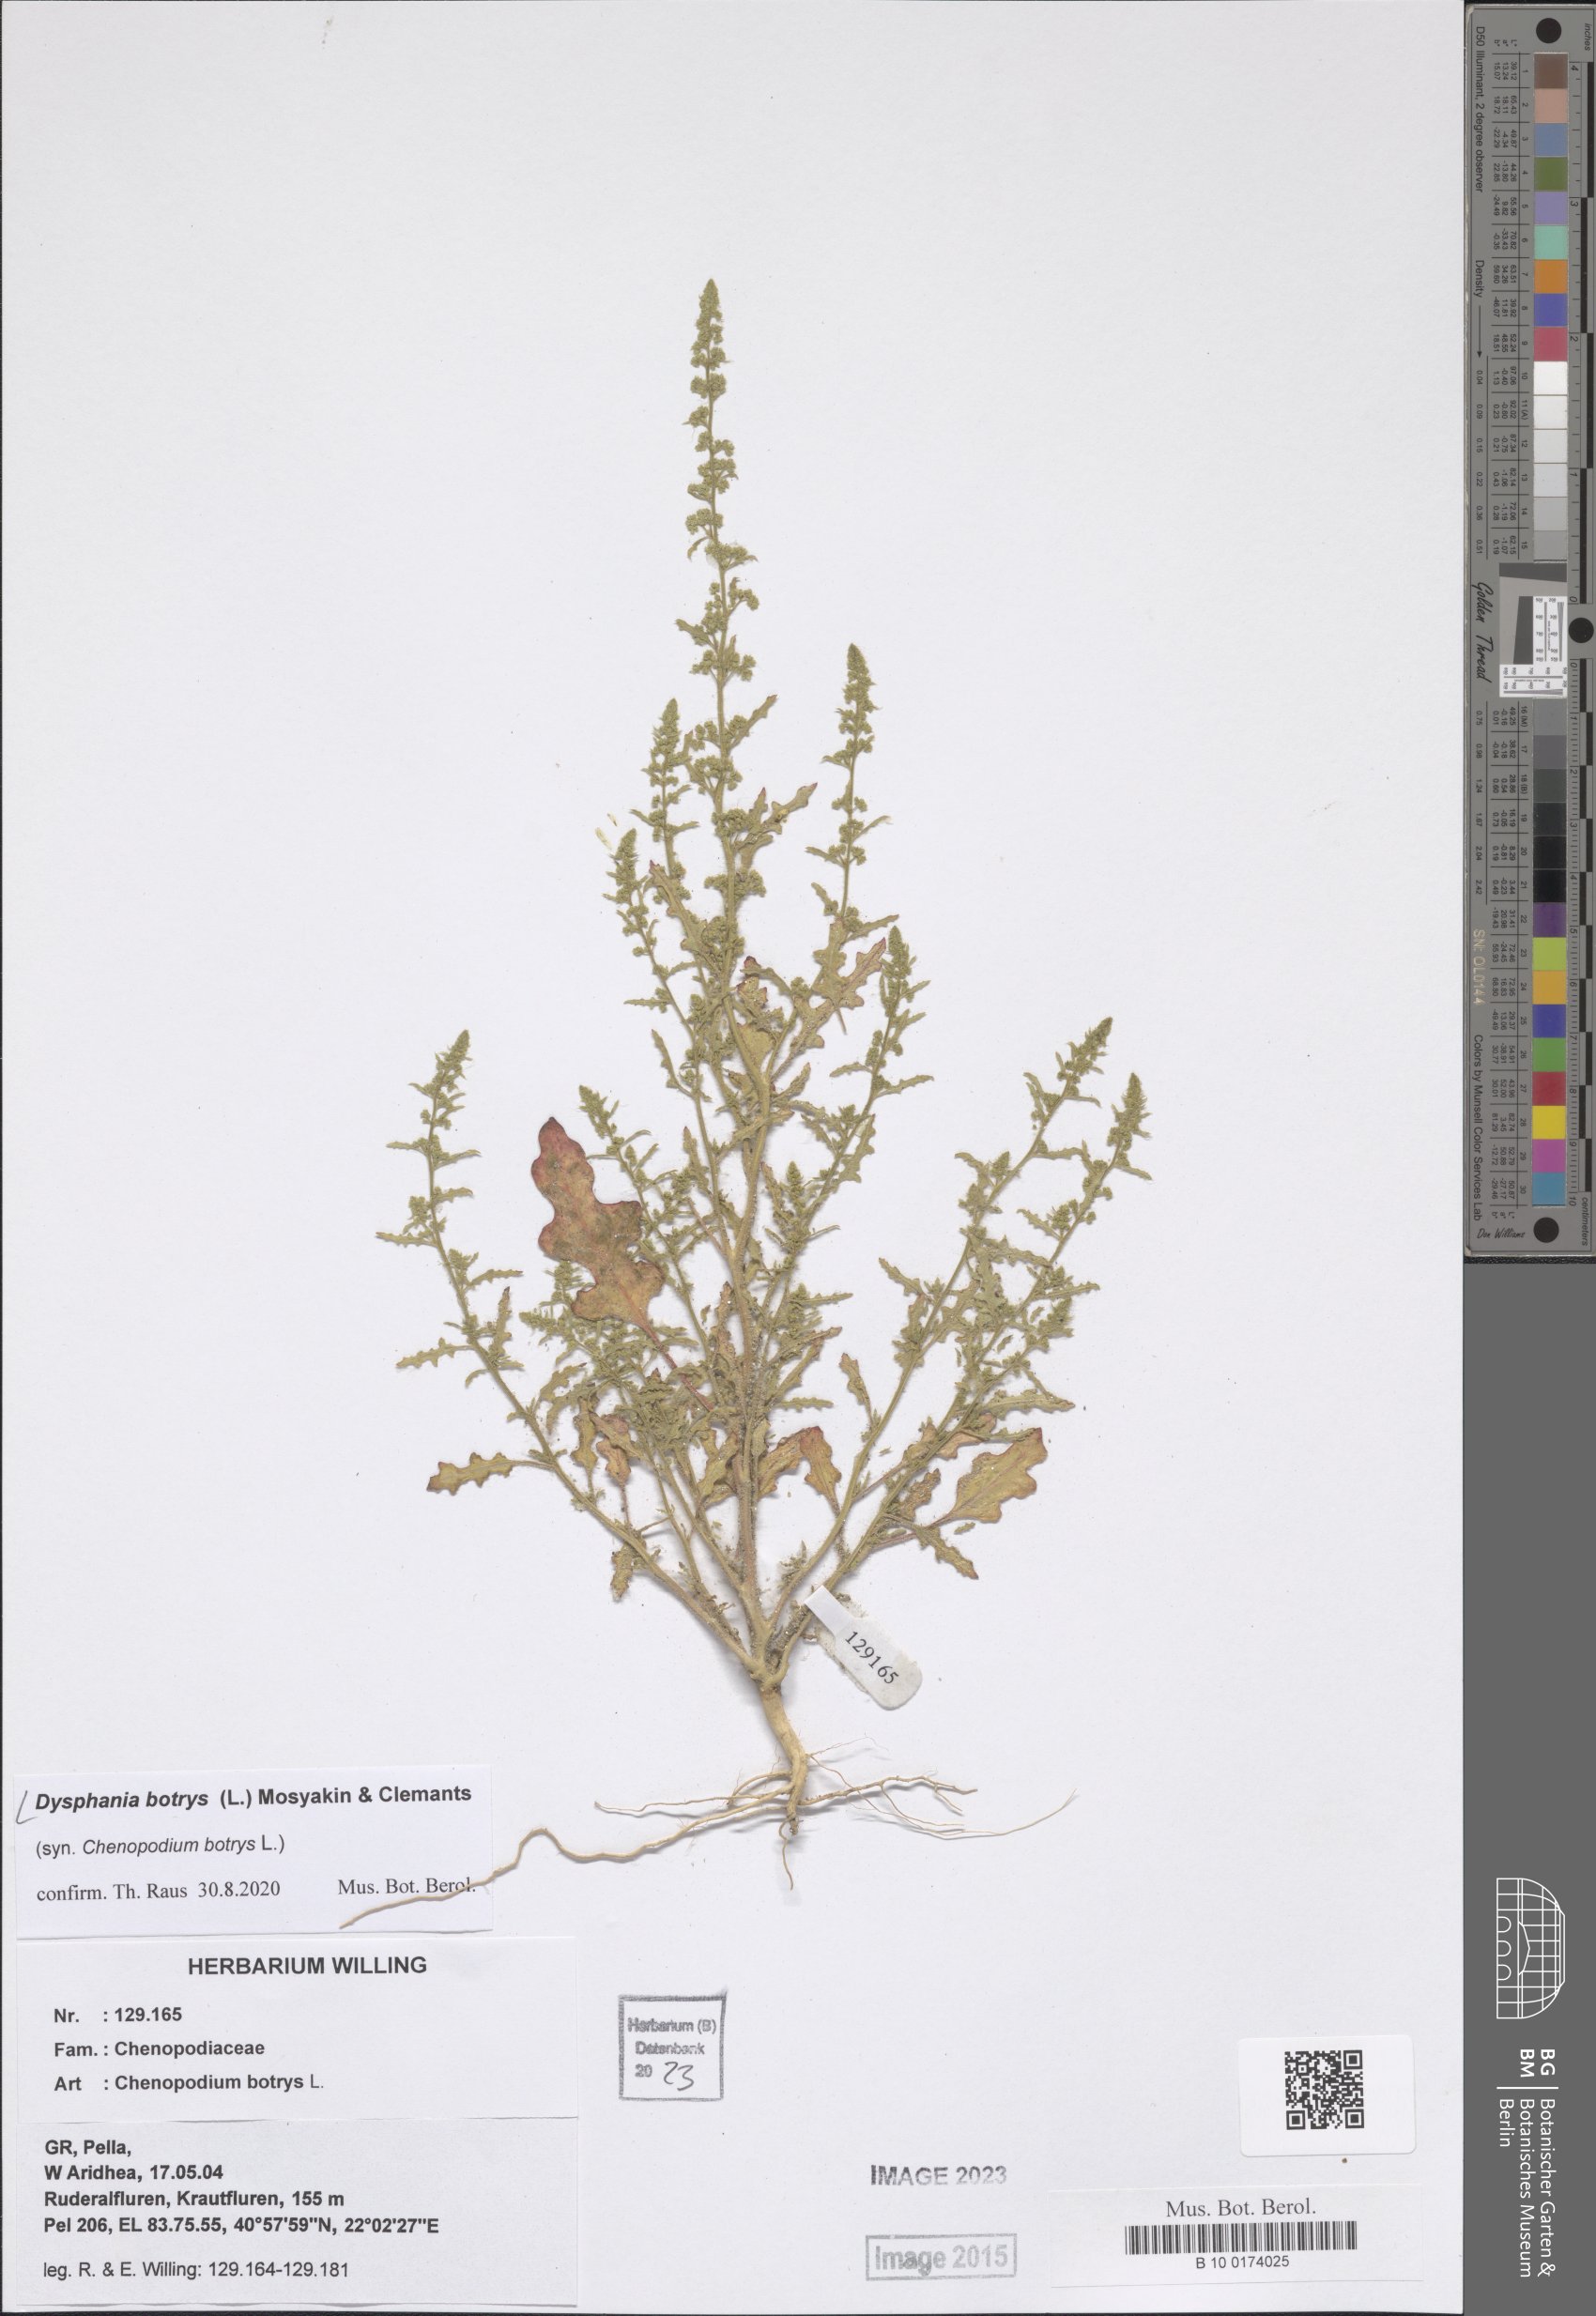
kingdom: Plantae
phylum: Tracheophyta
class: Magnoliopsida
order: Caryophyllales
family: Amaranthaceae
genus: Dysphania
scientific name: Dysphania botrys
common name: Feather-geranium
